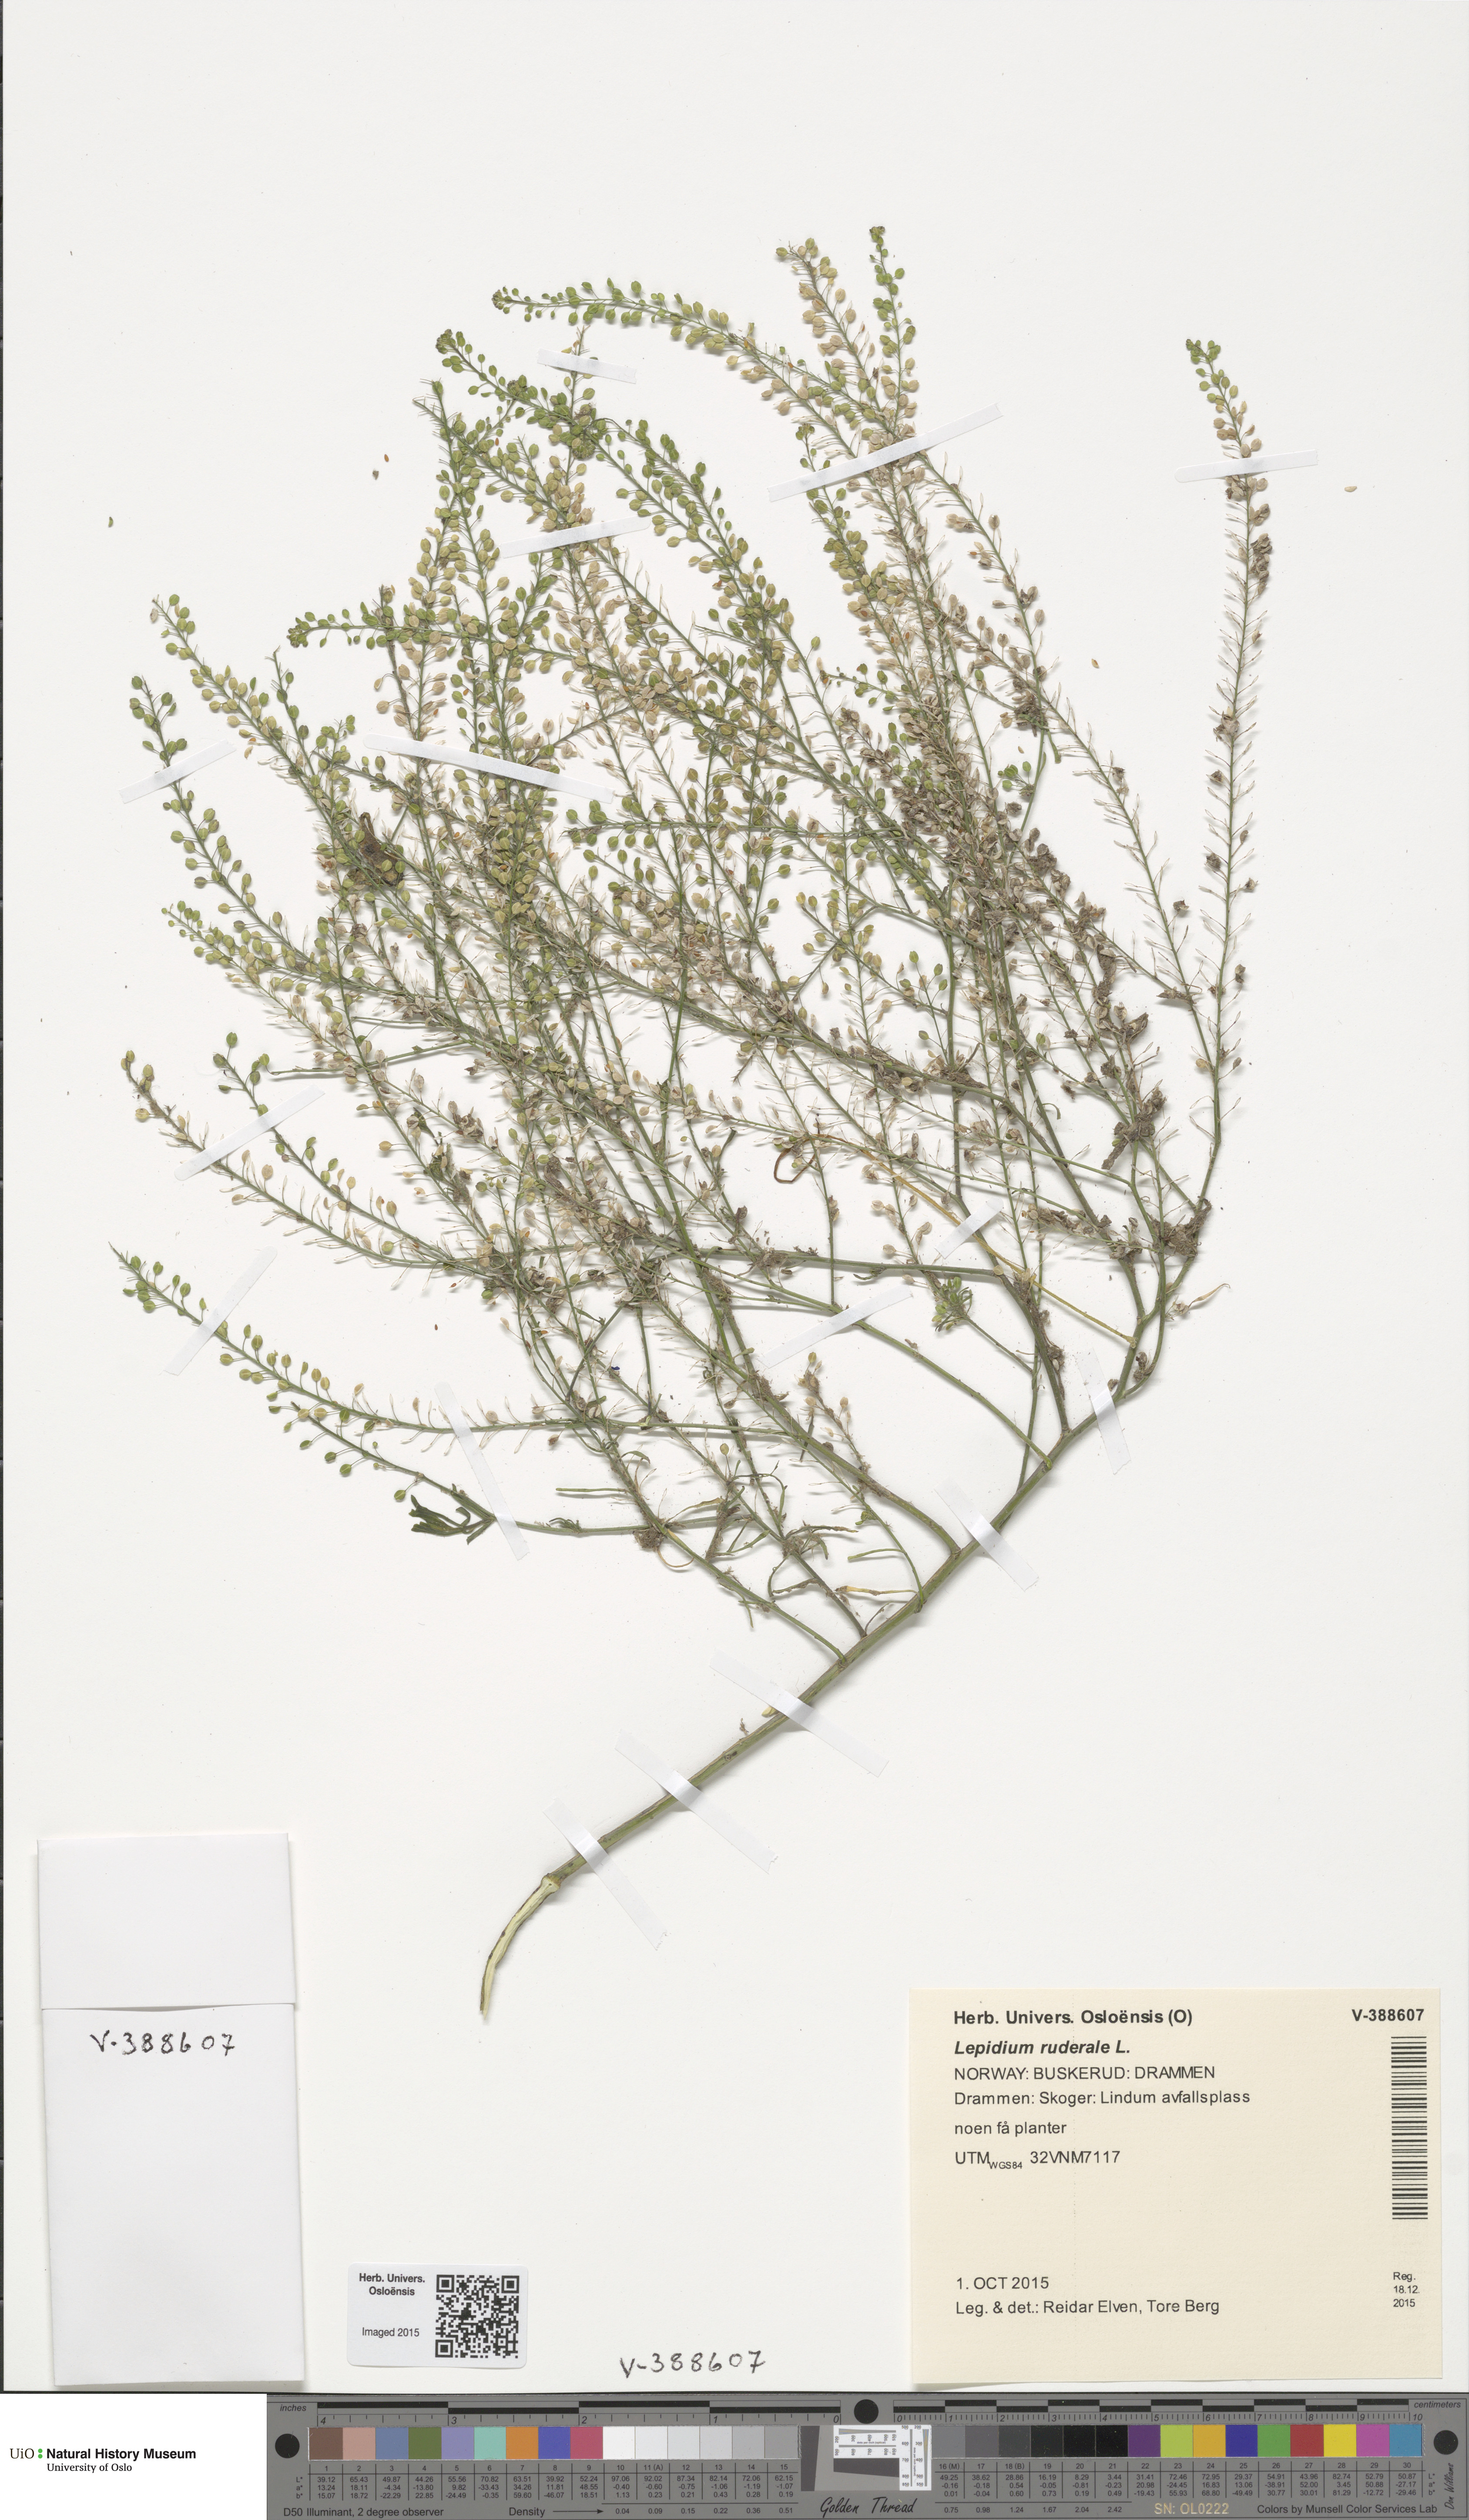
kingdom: Plantae
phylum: Tracheophyta
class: Magnoliopsida
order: Brassicales
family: Brassicaceae
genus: Lepidium
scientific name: Lepidium ruderale
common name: Narrow-leaved pepperwort
